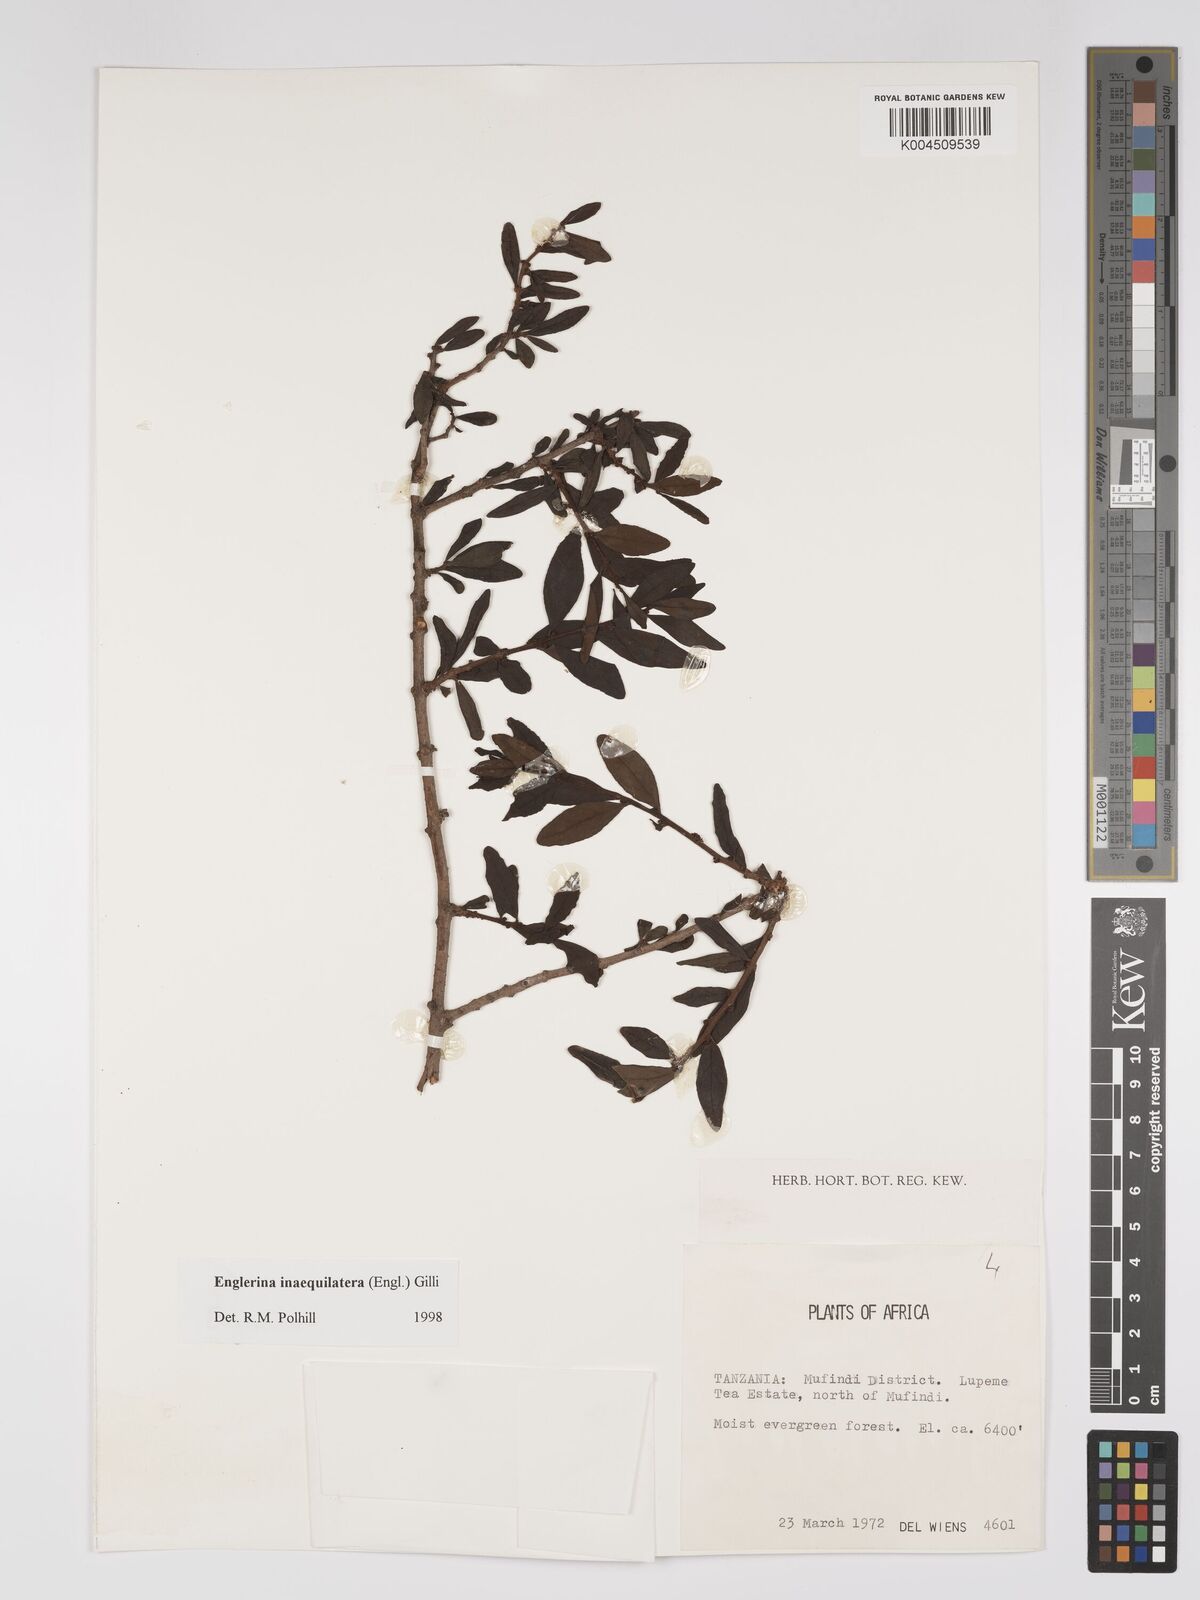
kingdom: Plantae
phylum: Tracheophyta
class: Magnoliopsida
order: Santalales
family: Loranthaceae
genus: Englerina
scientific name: Englerina inaequilatera
